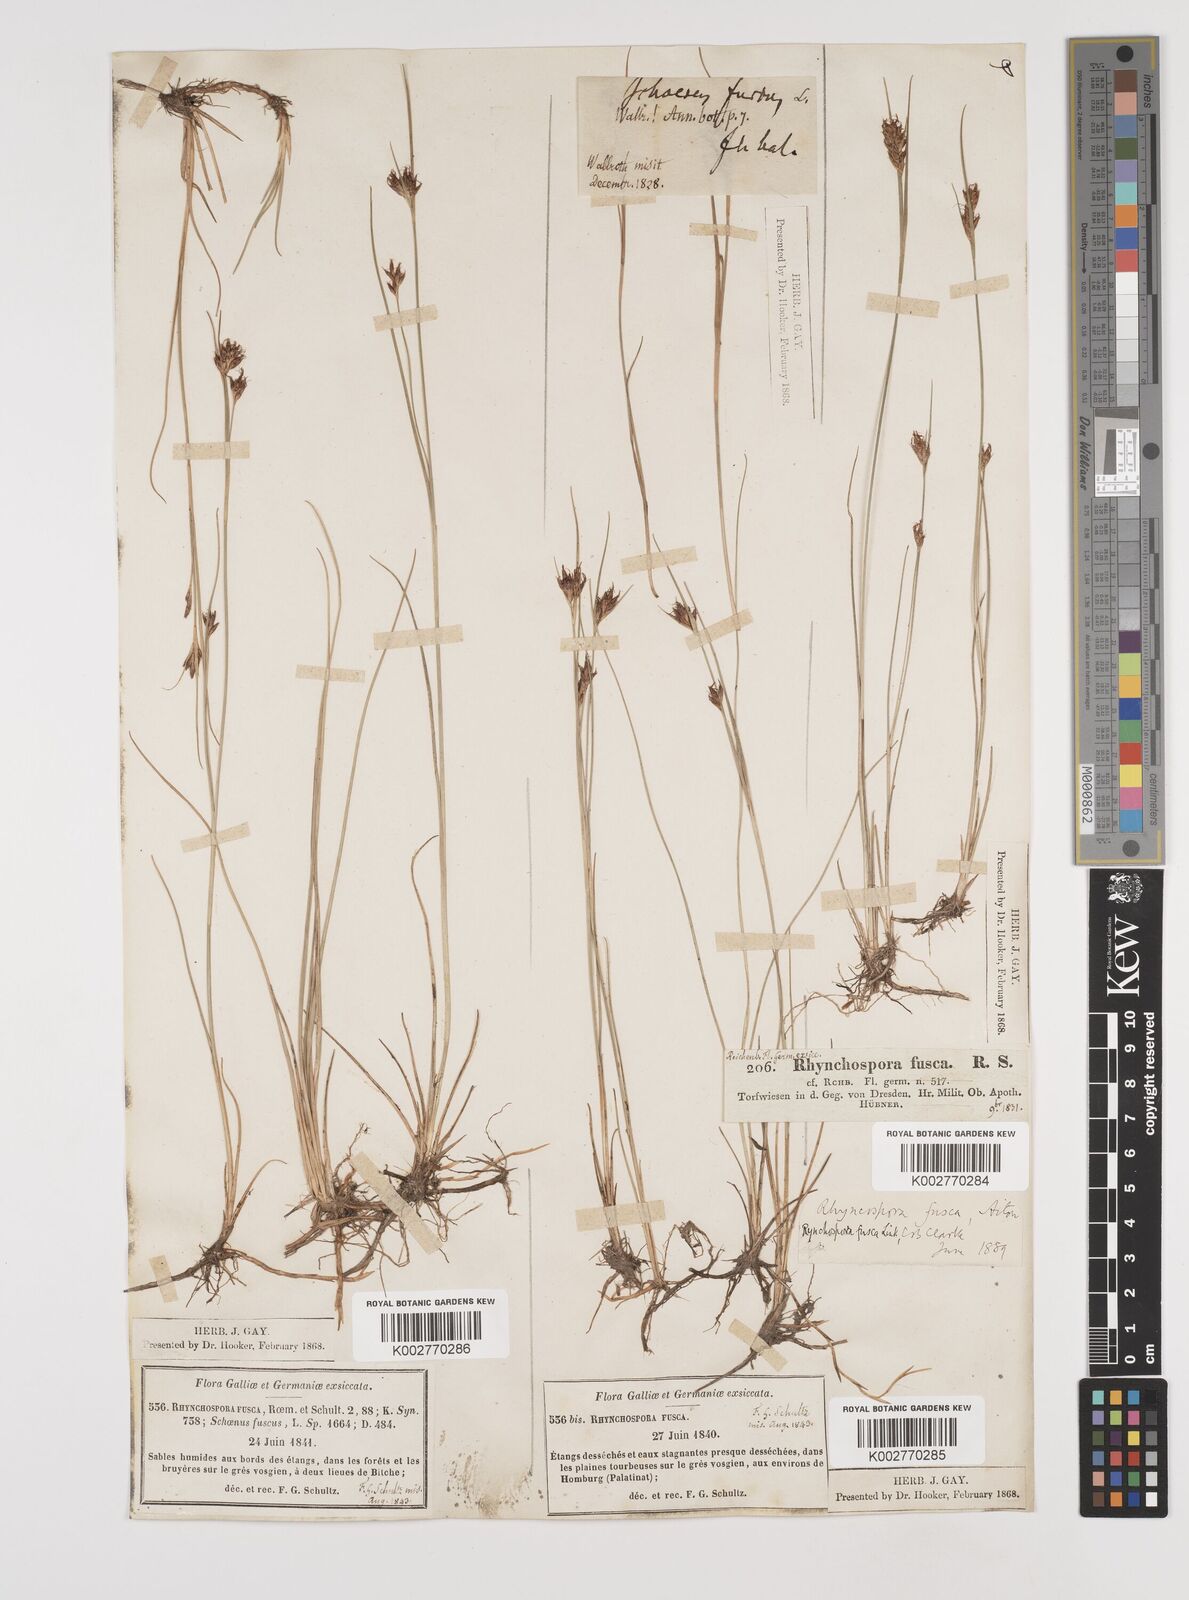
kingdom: Plantae
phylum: Tracheophyta
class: Liliopsida
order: Poales
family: Cyperaceae
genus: Rhynchospora
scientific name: Rhynchospora fusca
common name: Brown beak-sedge
